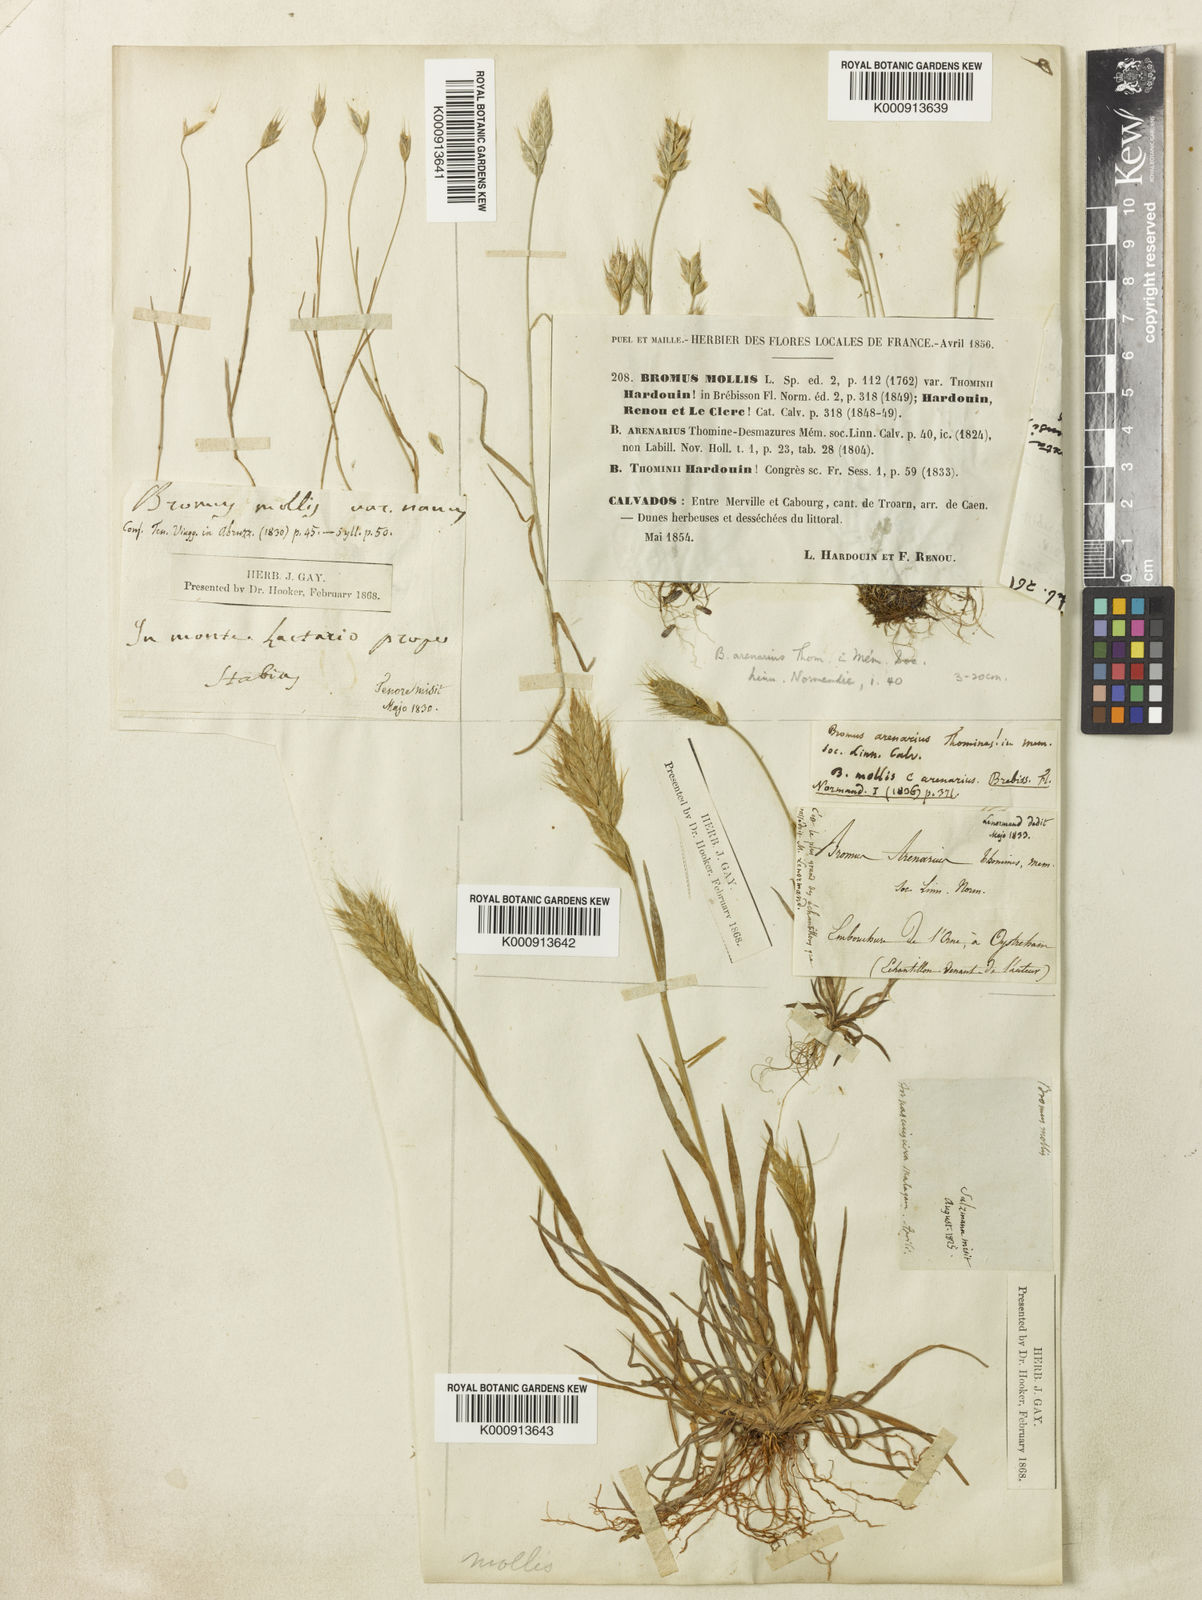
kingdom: Plantae
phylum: Tracheophyta
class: Liliopsida
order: Poales
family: Poaceae
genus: Bromus
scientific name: Bromus hordeaceus
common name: Soft brome
